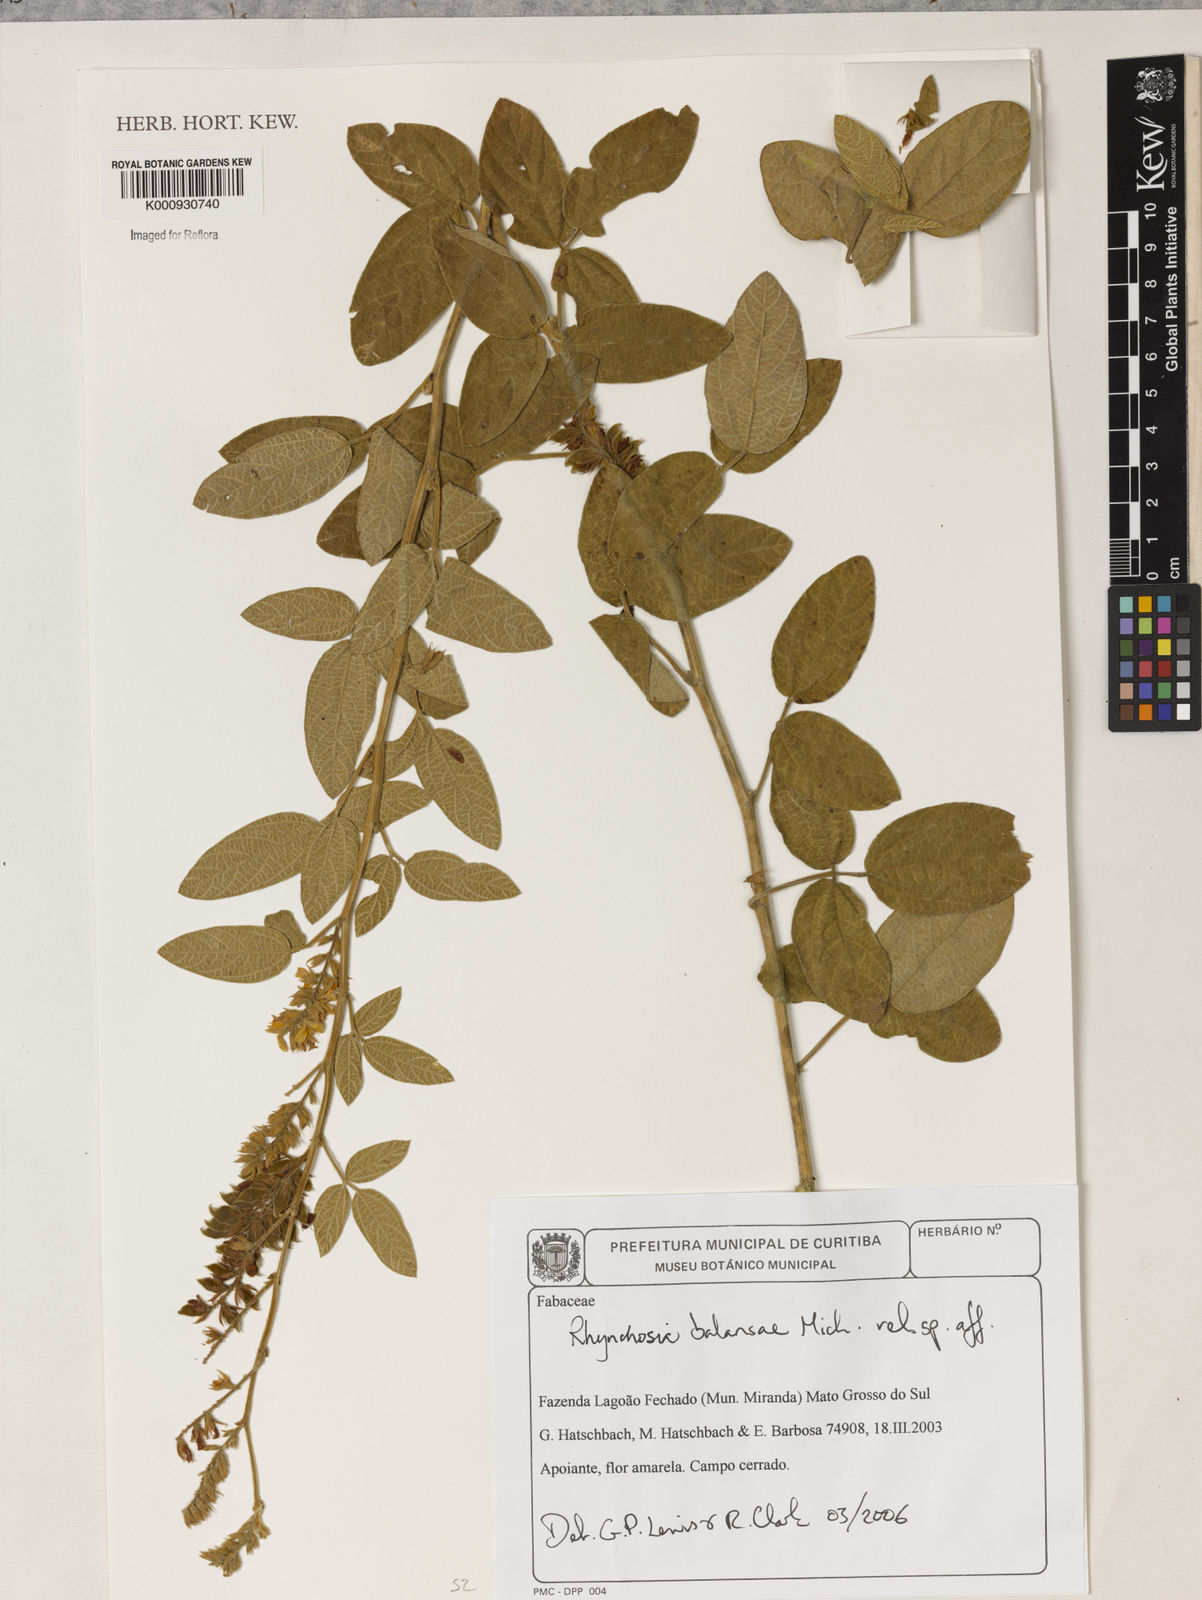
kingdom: Plantae
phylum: Tracheophyta
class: Magnoliopsida
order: Fabales
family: Fabaceae
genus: Rhynchosia
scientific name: Rhynchosia balansae
